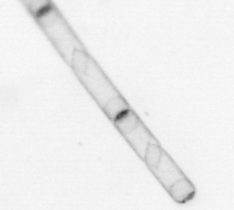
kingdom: Chromista
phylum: Ochrophyta
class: Bacillariophyceae
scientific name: Bacillariophyceae
